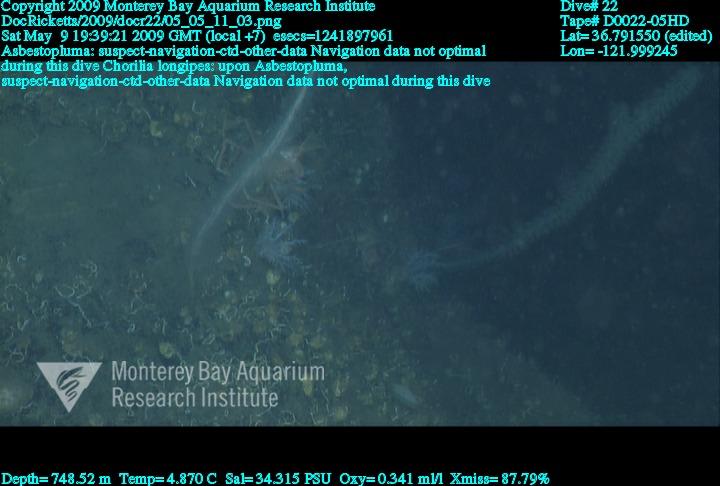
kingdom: Animalia
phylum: Porifera
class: Demospongiae
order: Poecilosclerida
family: Cladorhizidae
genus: Asbestopluma
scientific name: Asbestopluma
